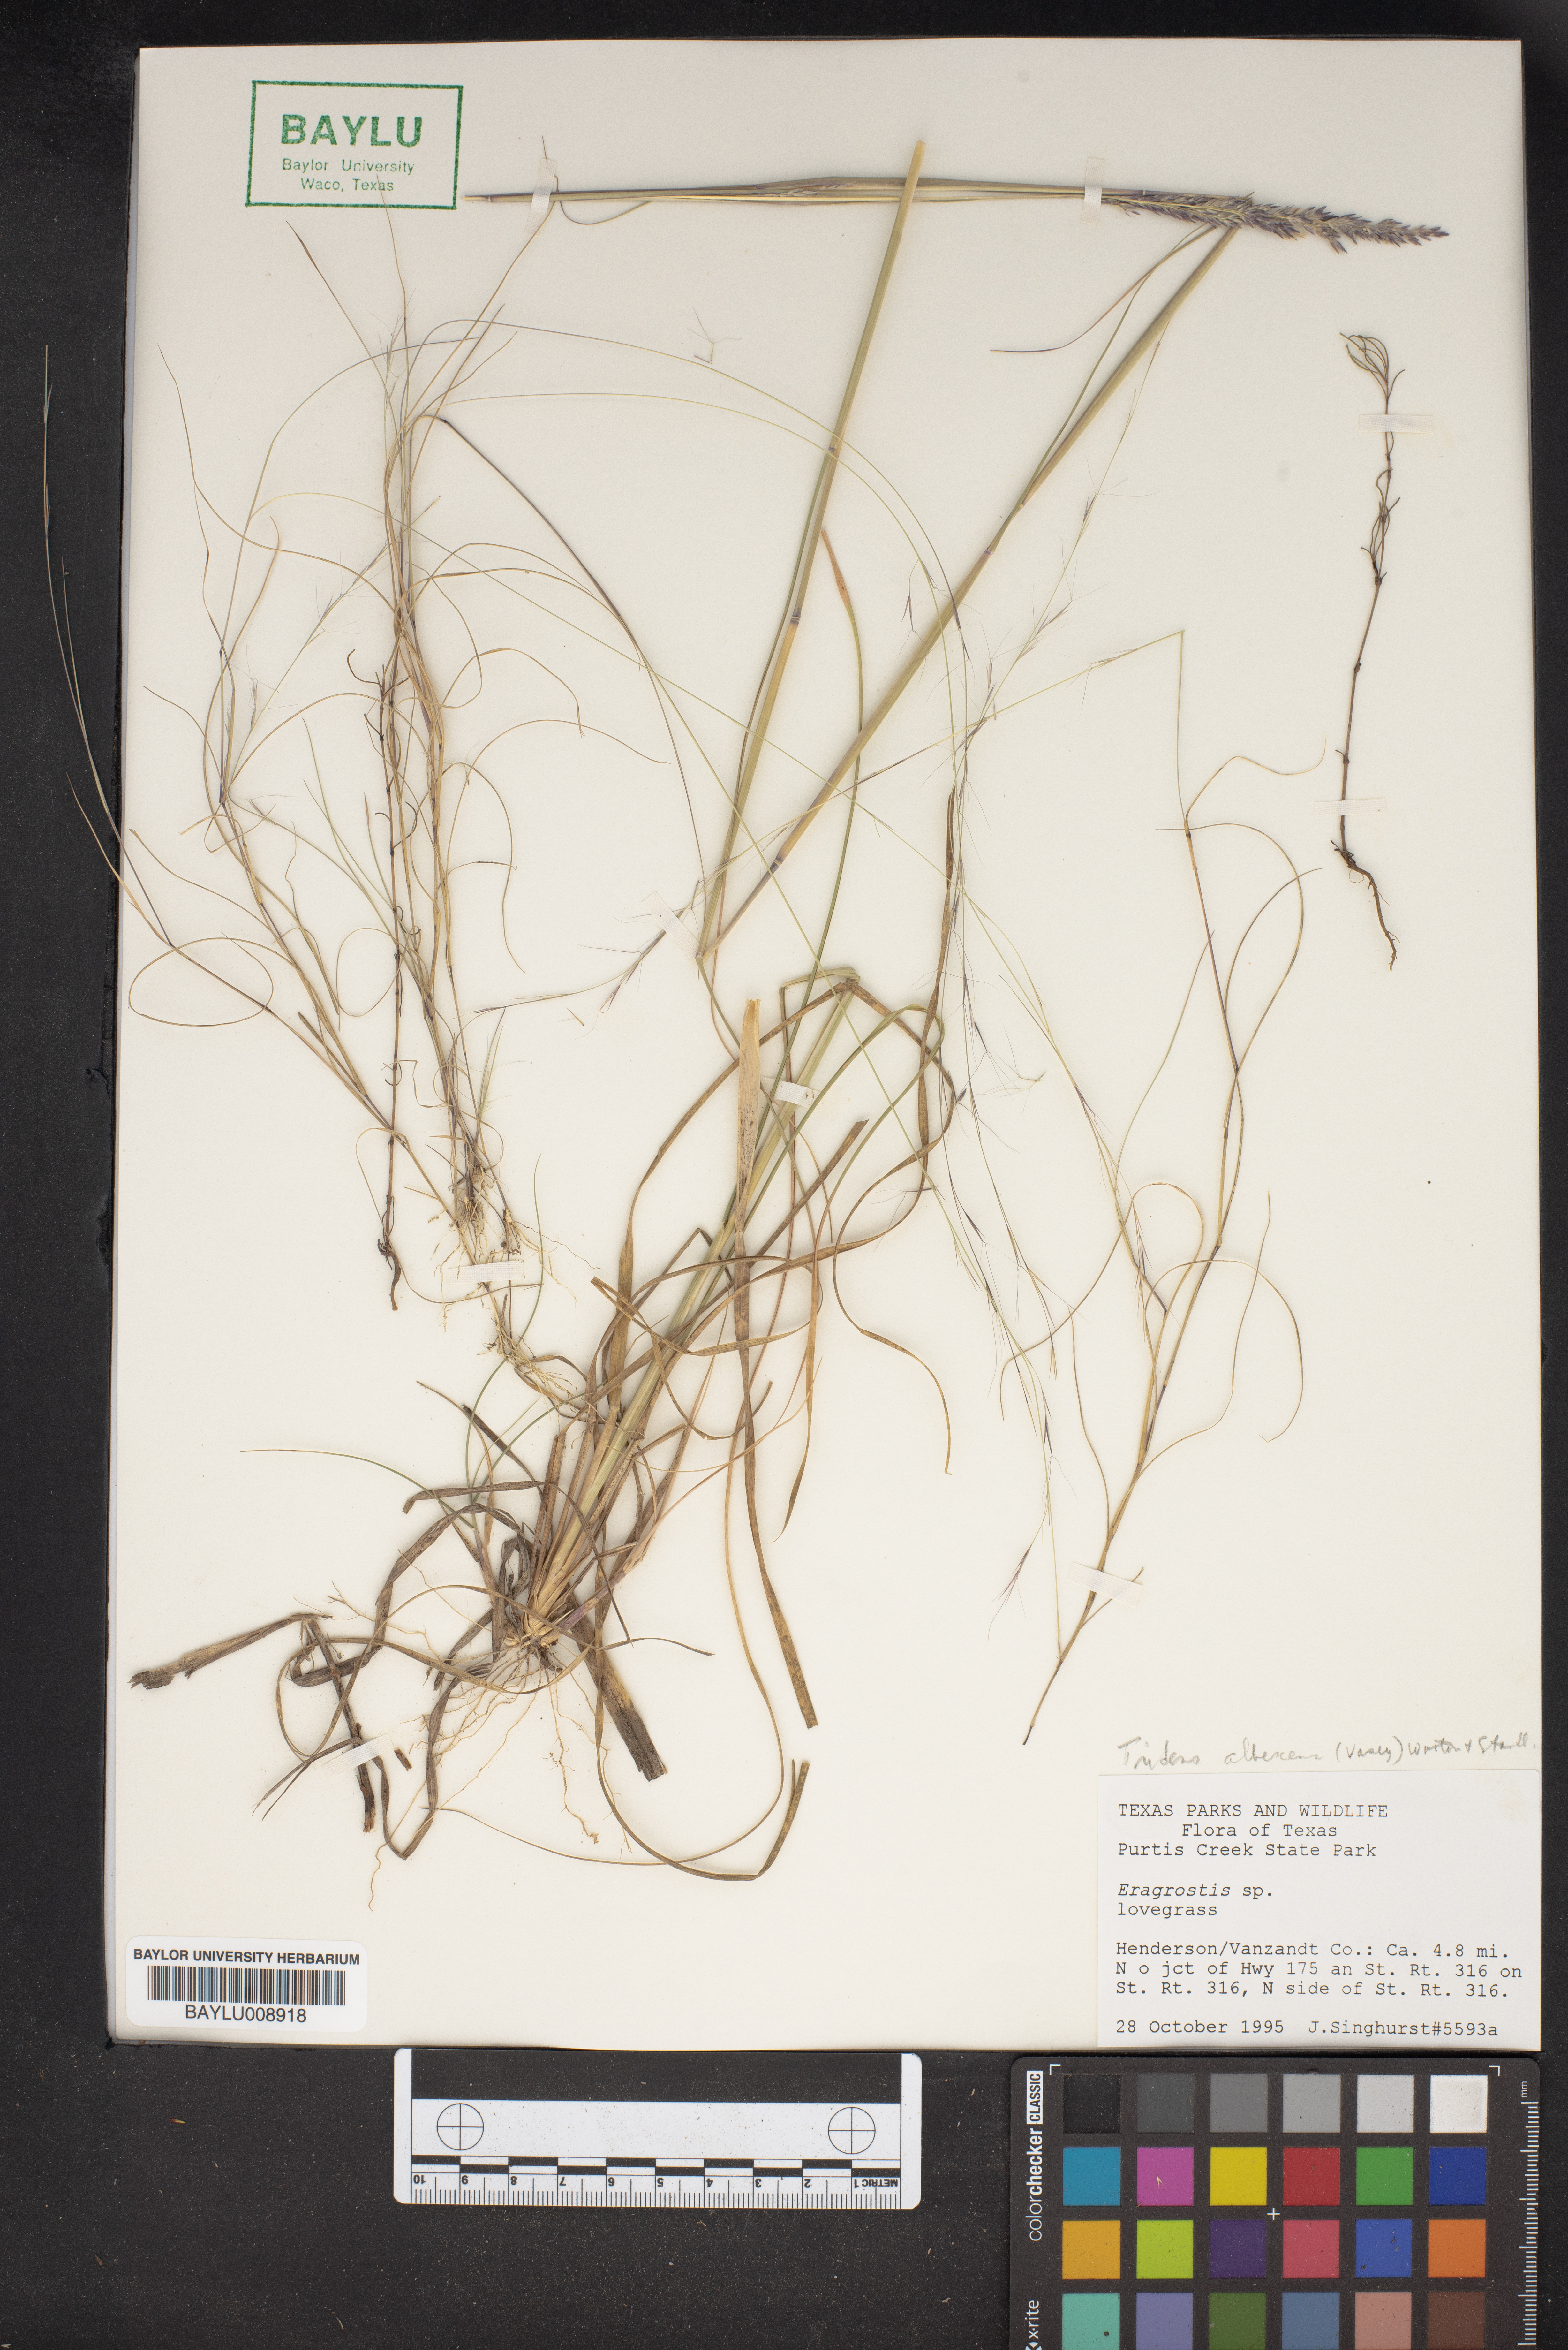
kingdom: Plantae
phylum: Tracheophyta
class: Liliopsida
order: Poales
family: Poaceae
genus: Eragrostis
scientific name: Eragrostis
